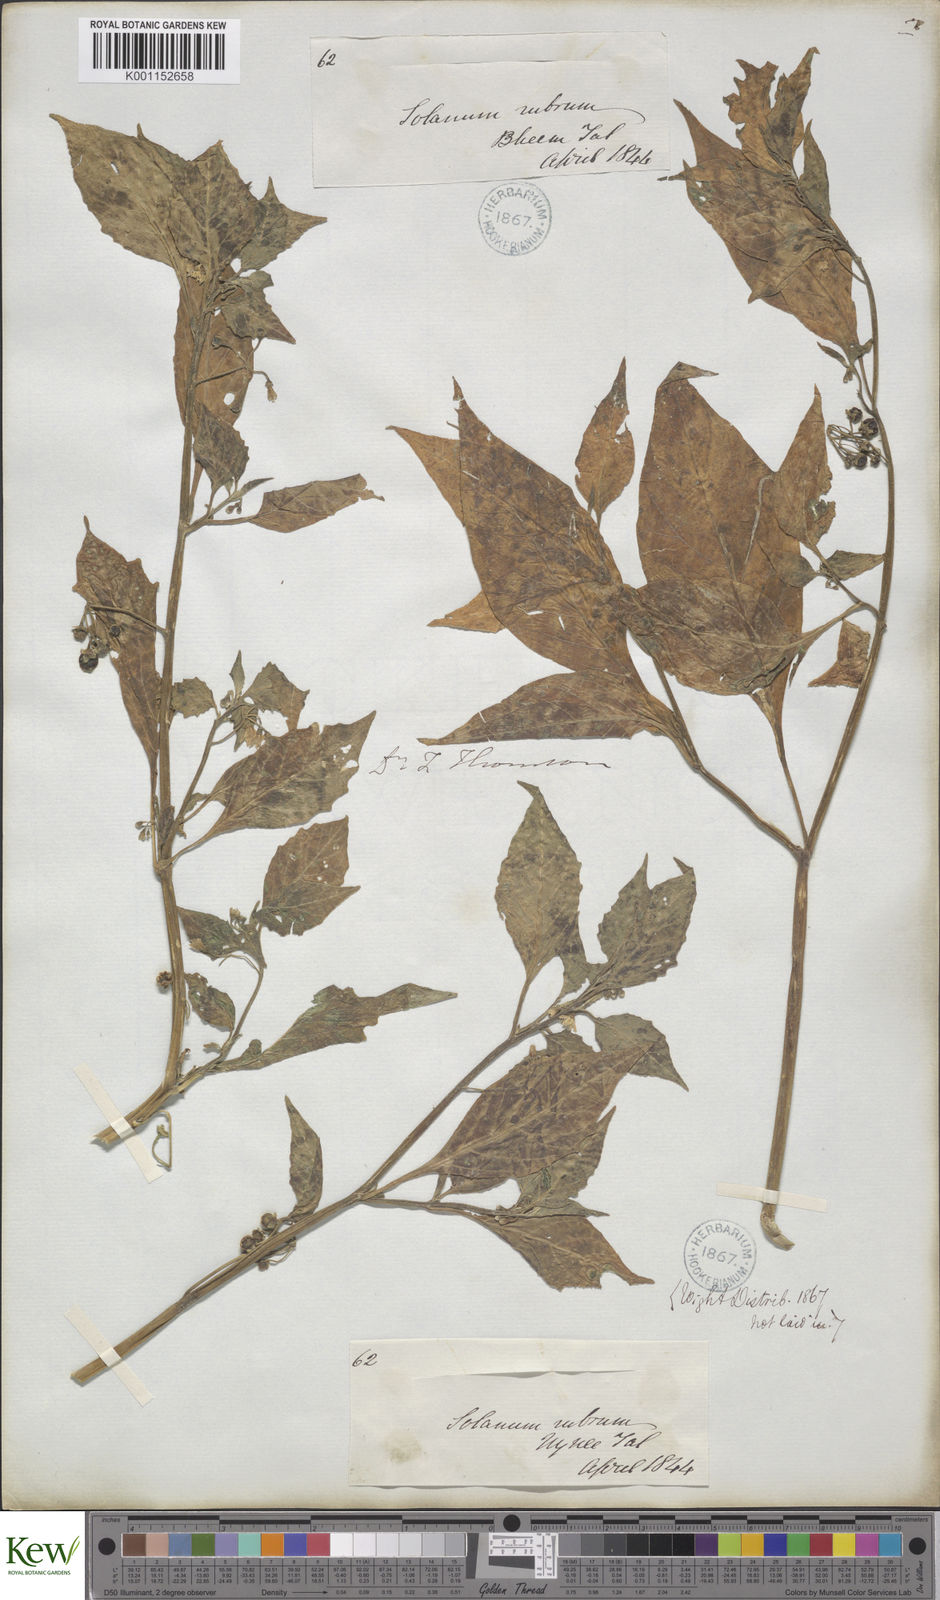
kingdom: Plantae
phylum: Tracheophyta
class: Magnoliopsida
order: Solanales
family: Solanaceae
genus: Solanum
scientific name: Solanum nigrum
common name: Black nightshade
